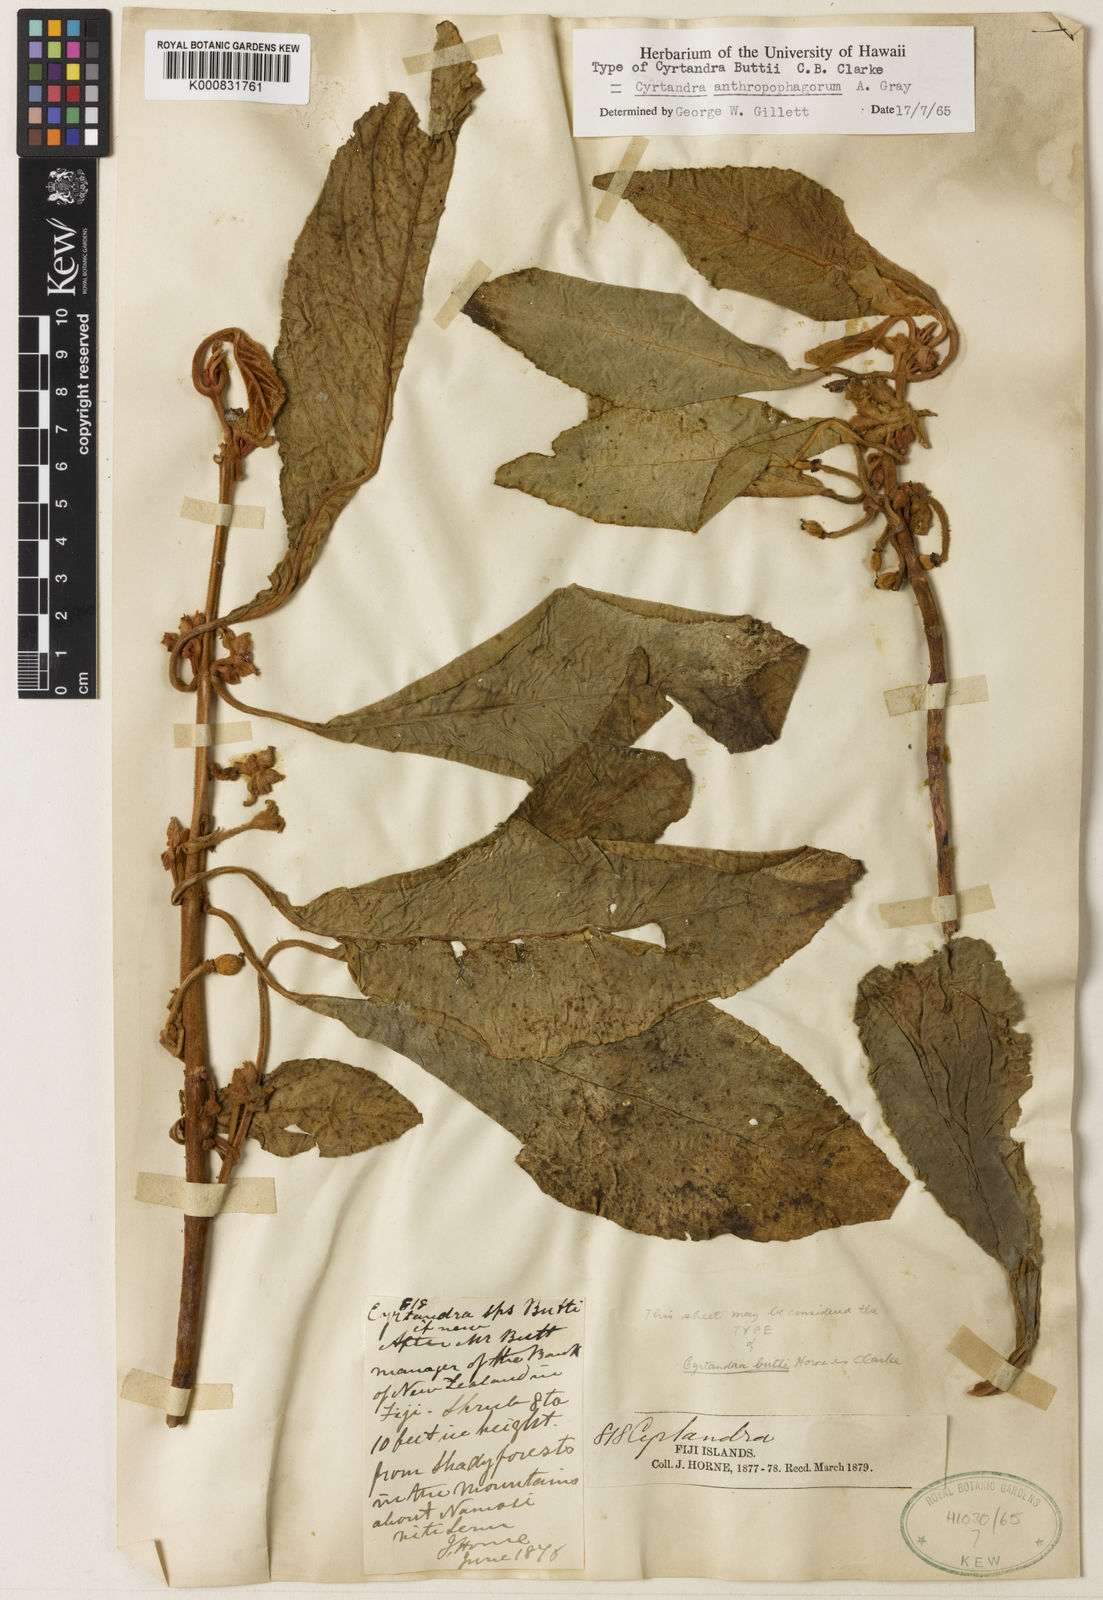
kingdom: Plantae
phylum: Tracheophyta
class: Magnoliopsida
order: Lamiales
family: Gesneriaceae
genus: Cyrtandra
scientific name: Cyrtandra
